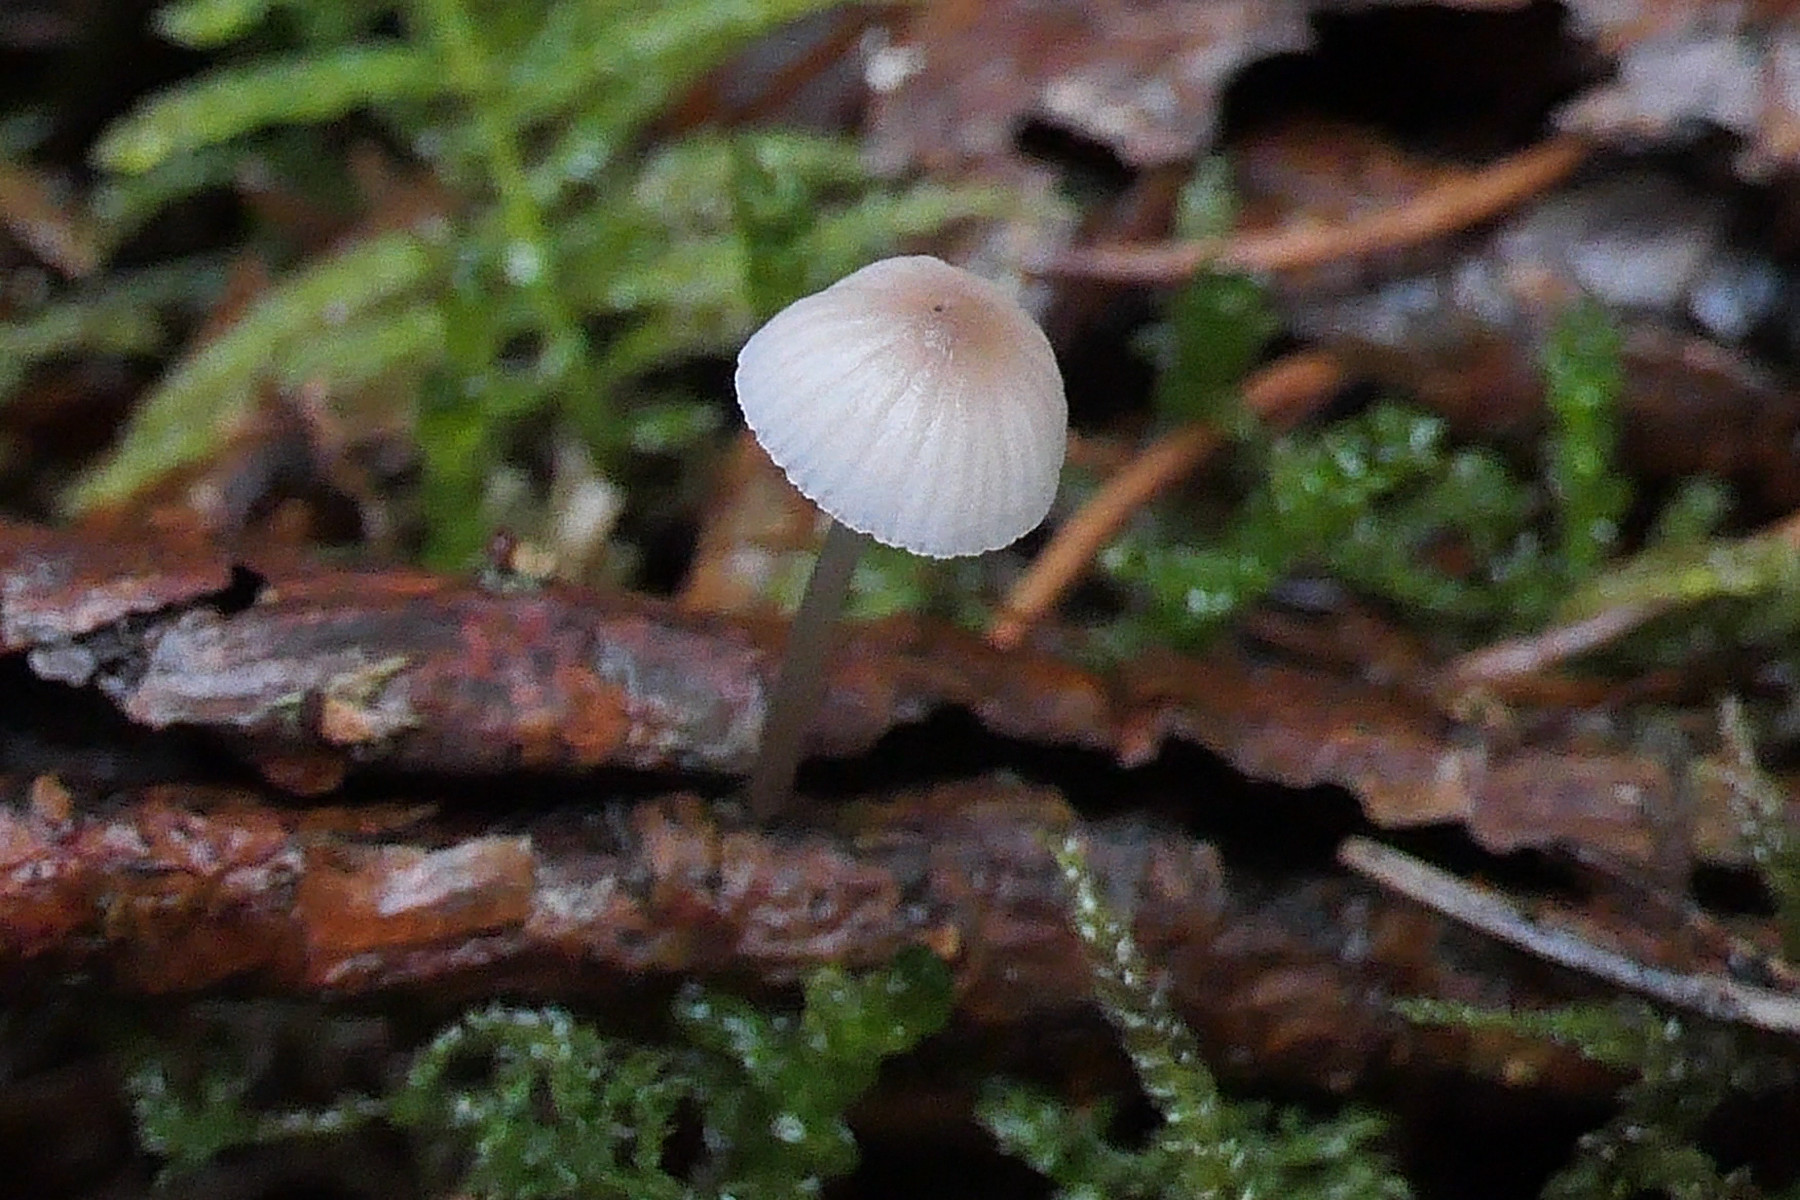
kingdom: Fungi
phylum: Basidiomycota
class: Agaricomycetes
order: Agaricales
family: Mycenaceae
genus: Mycena
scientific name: Mycena metata
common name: rødlig huesvamp
